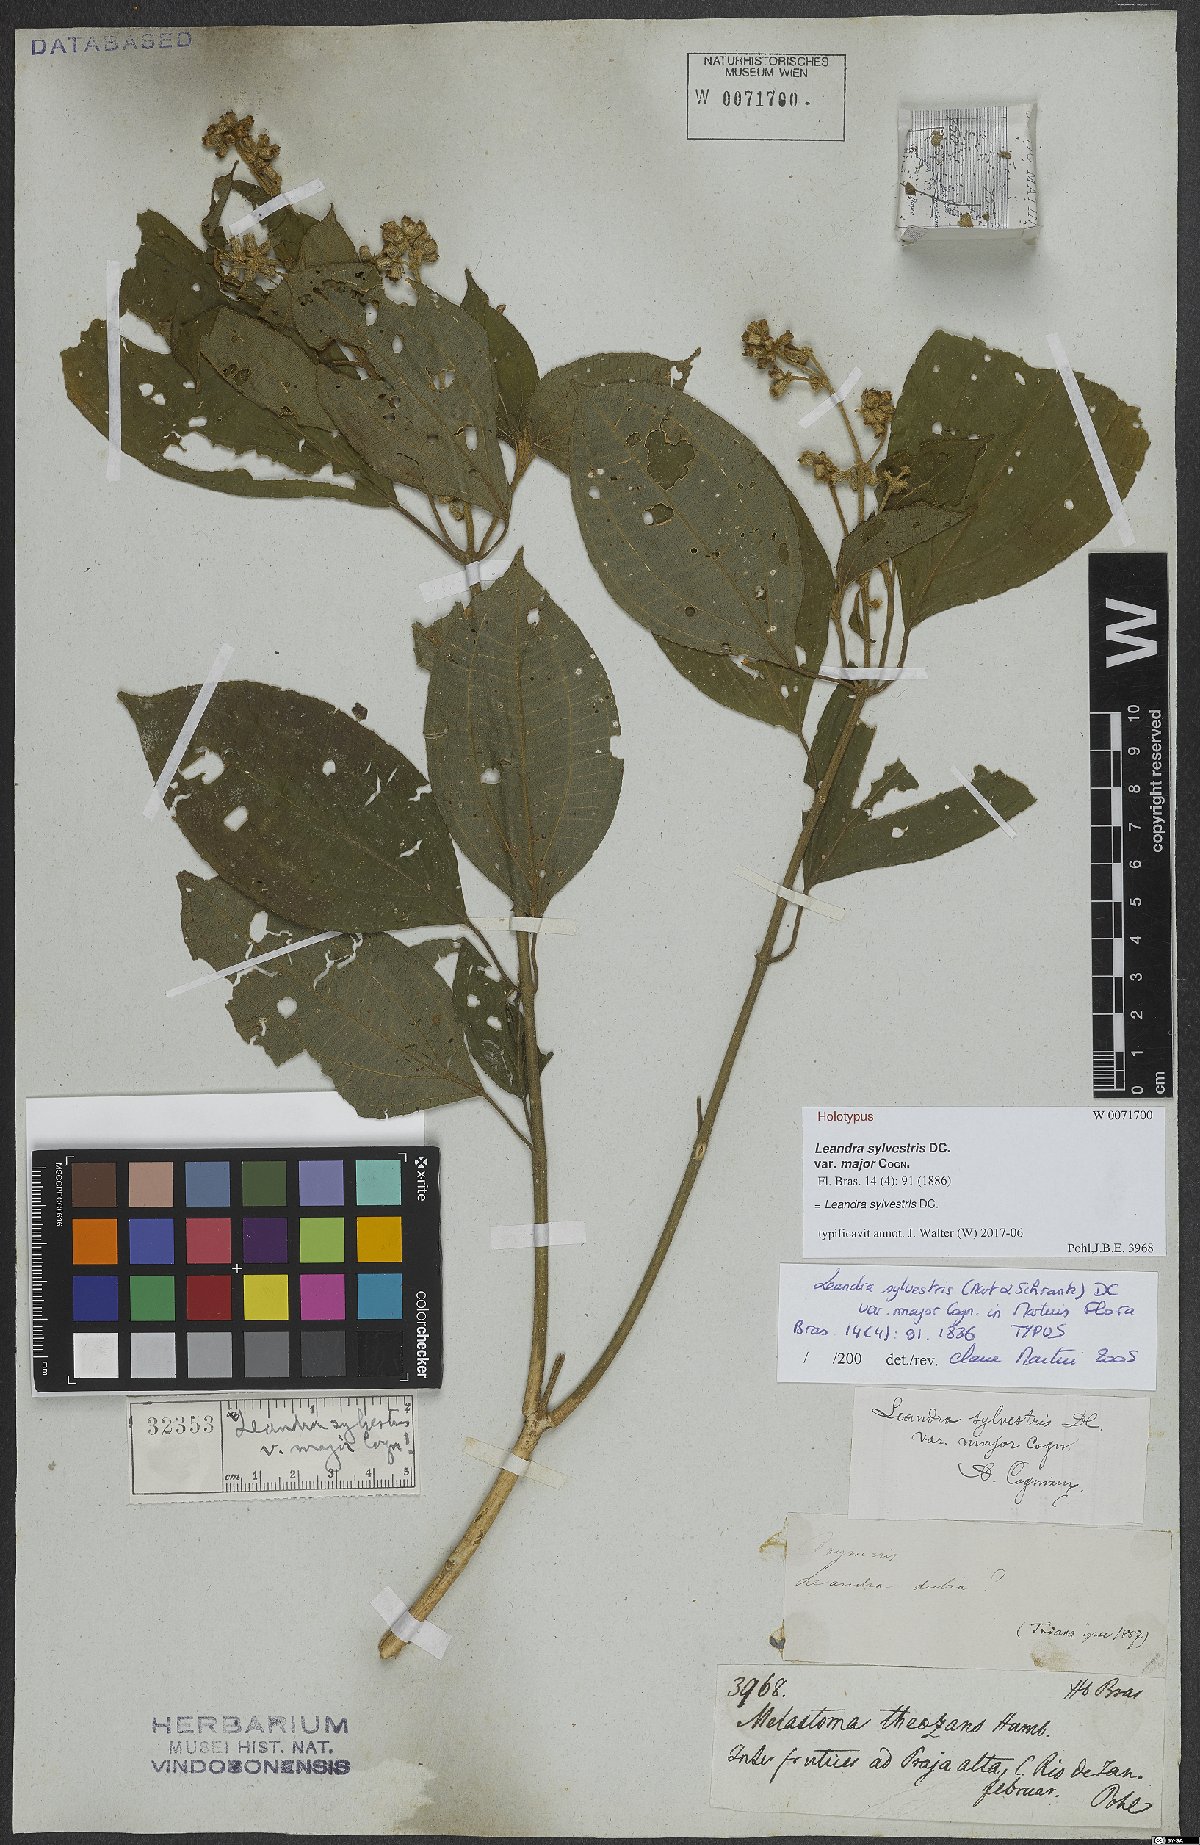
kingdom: Plantae
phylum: Tracheophyta
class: Magnoliopsida
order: Myrtales
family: Melastomataceae
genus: Miconia
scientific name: Miconia dubia
